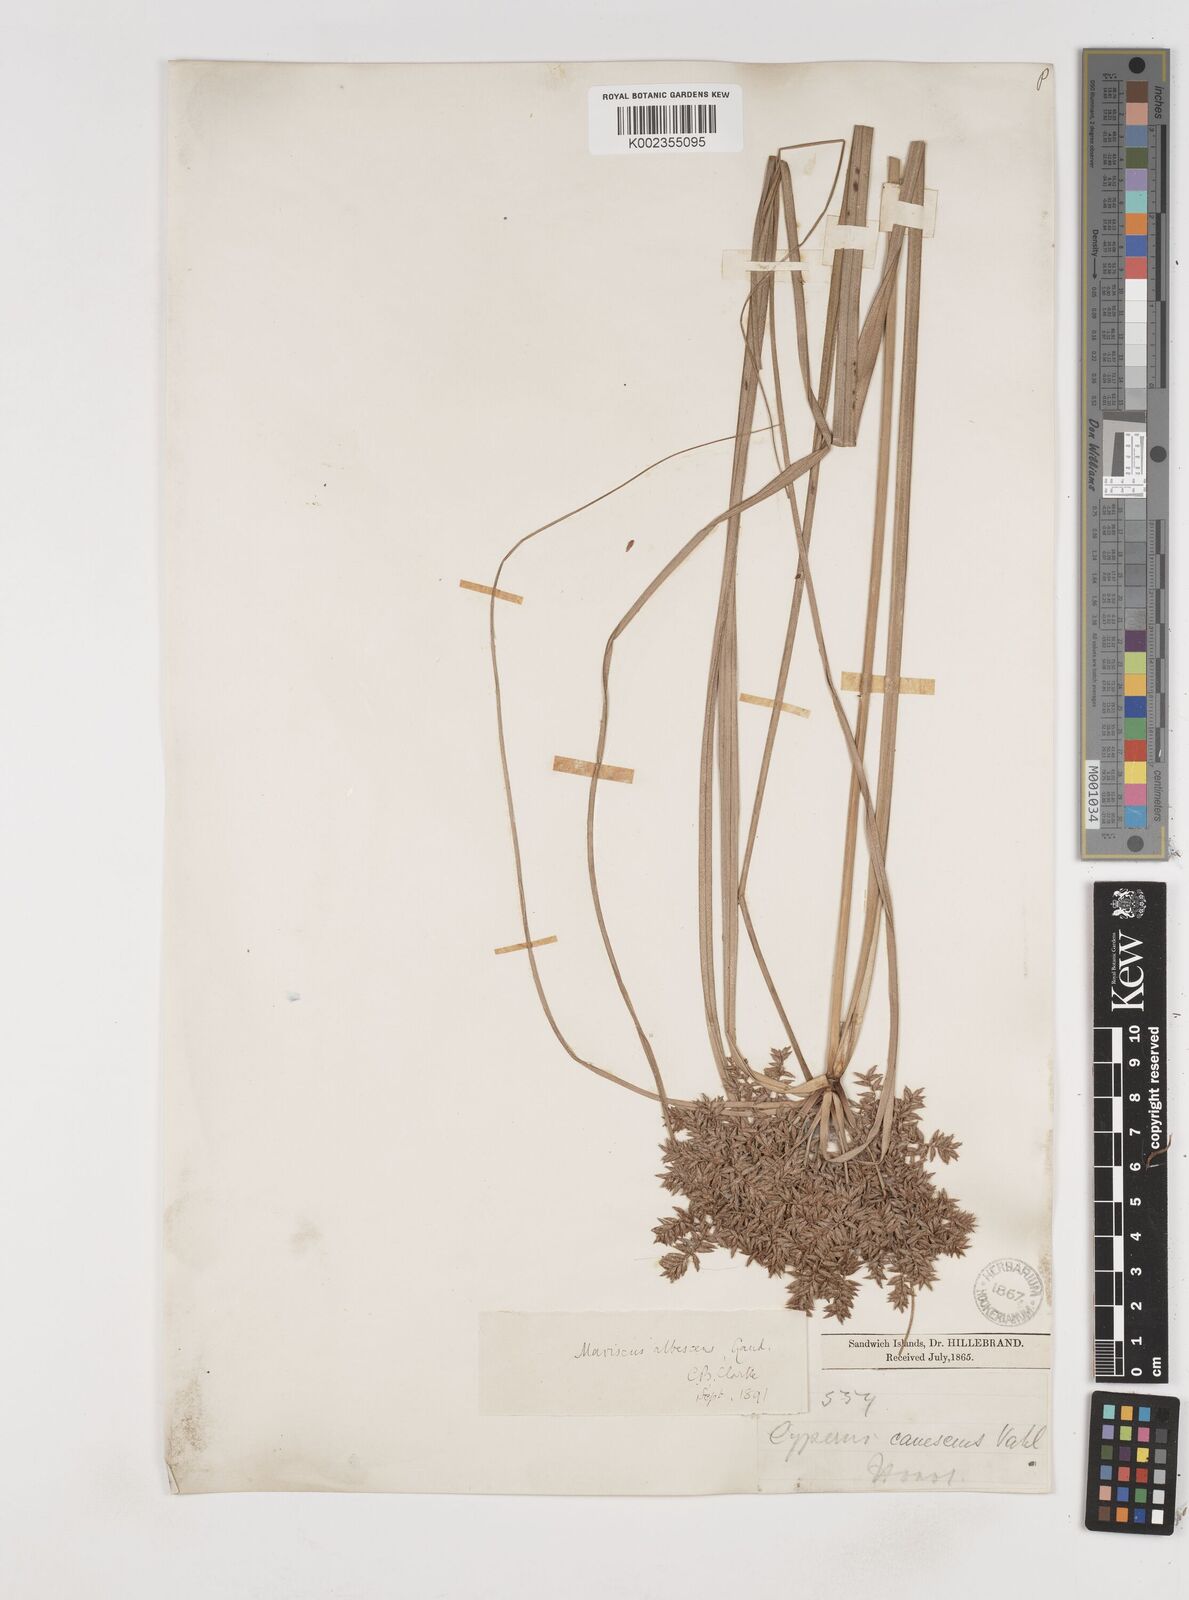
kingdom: Plantae
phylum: Tracheophyta
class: Liliopsida
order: Poales
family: Cyperaceae
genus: Cyperus
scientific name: Cyperus javanicus
